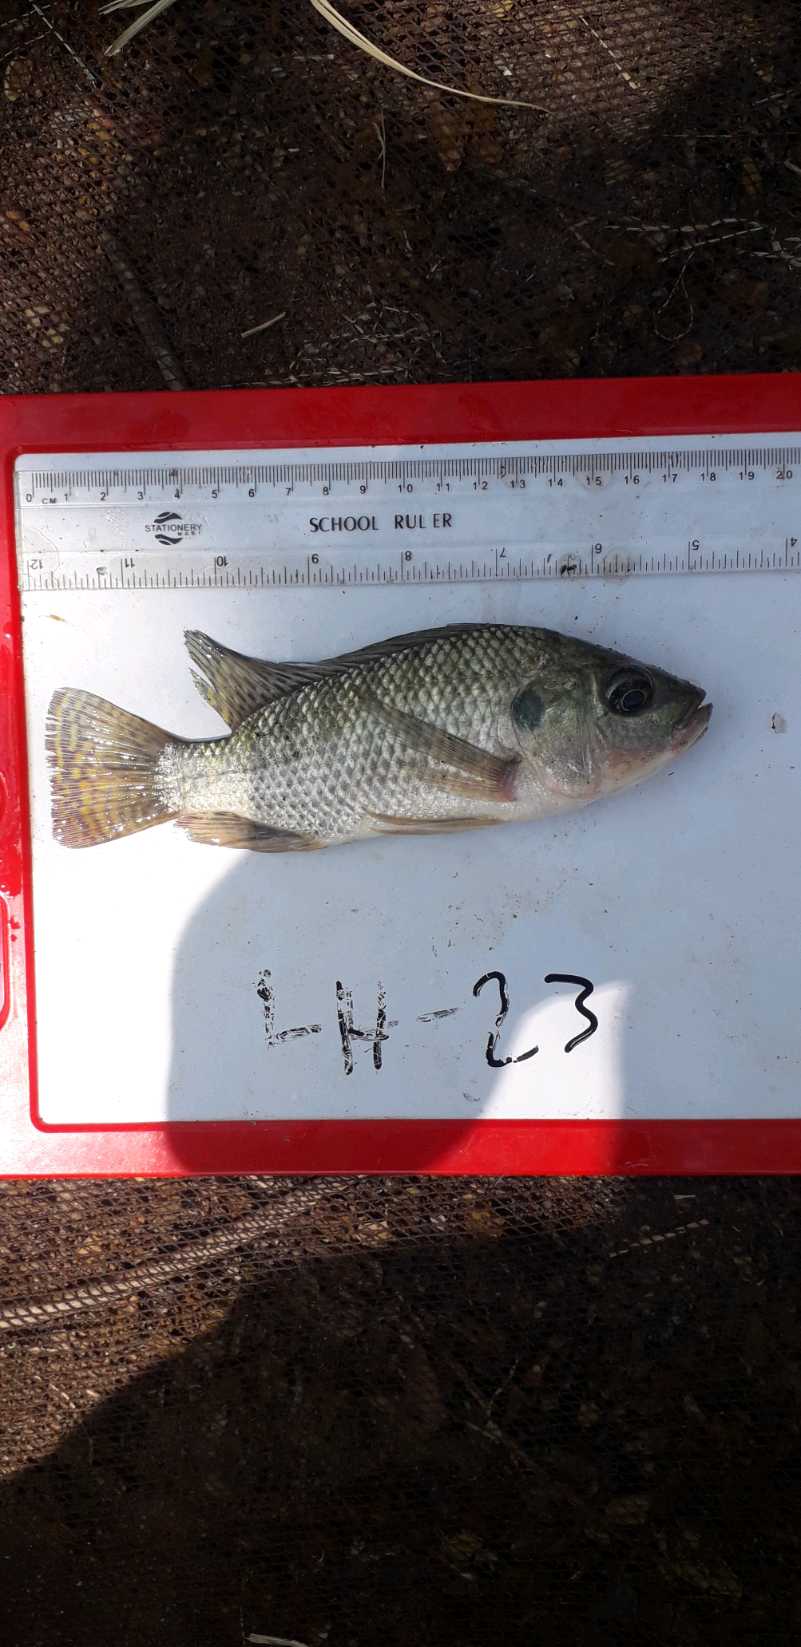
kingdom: Animalia
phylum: Chordata
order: Perciformes
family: Cichlidae
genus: Oreochromis
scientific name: Oreochromis
